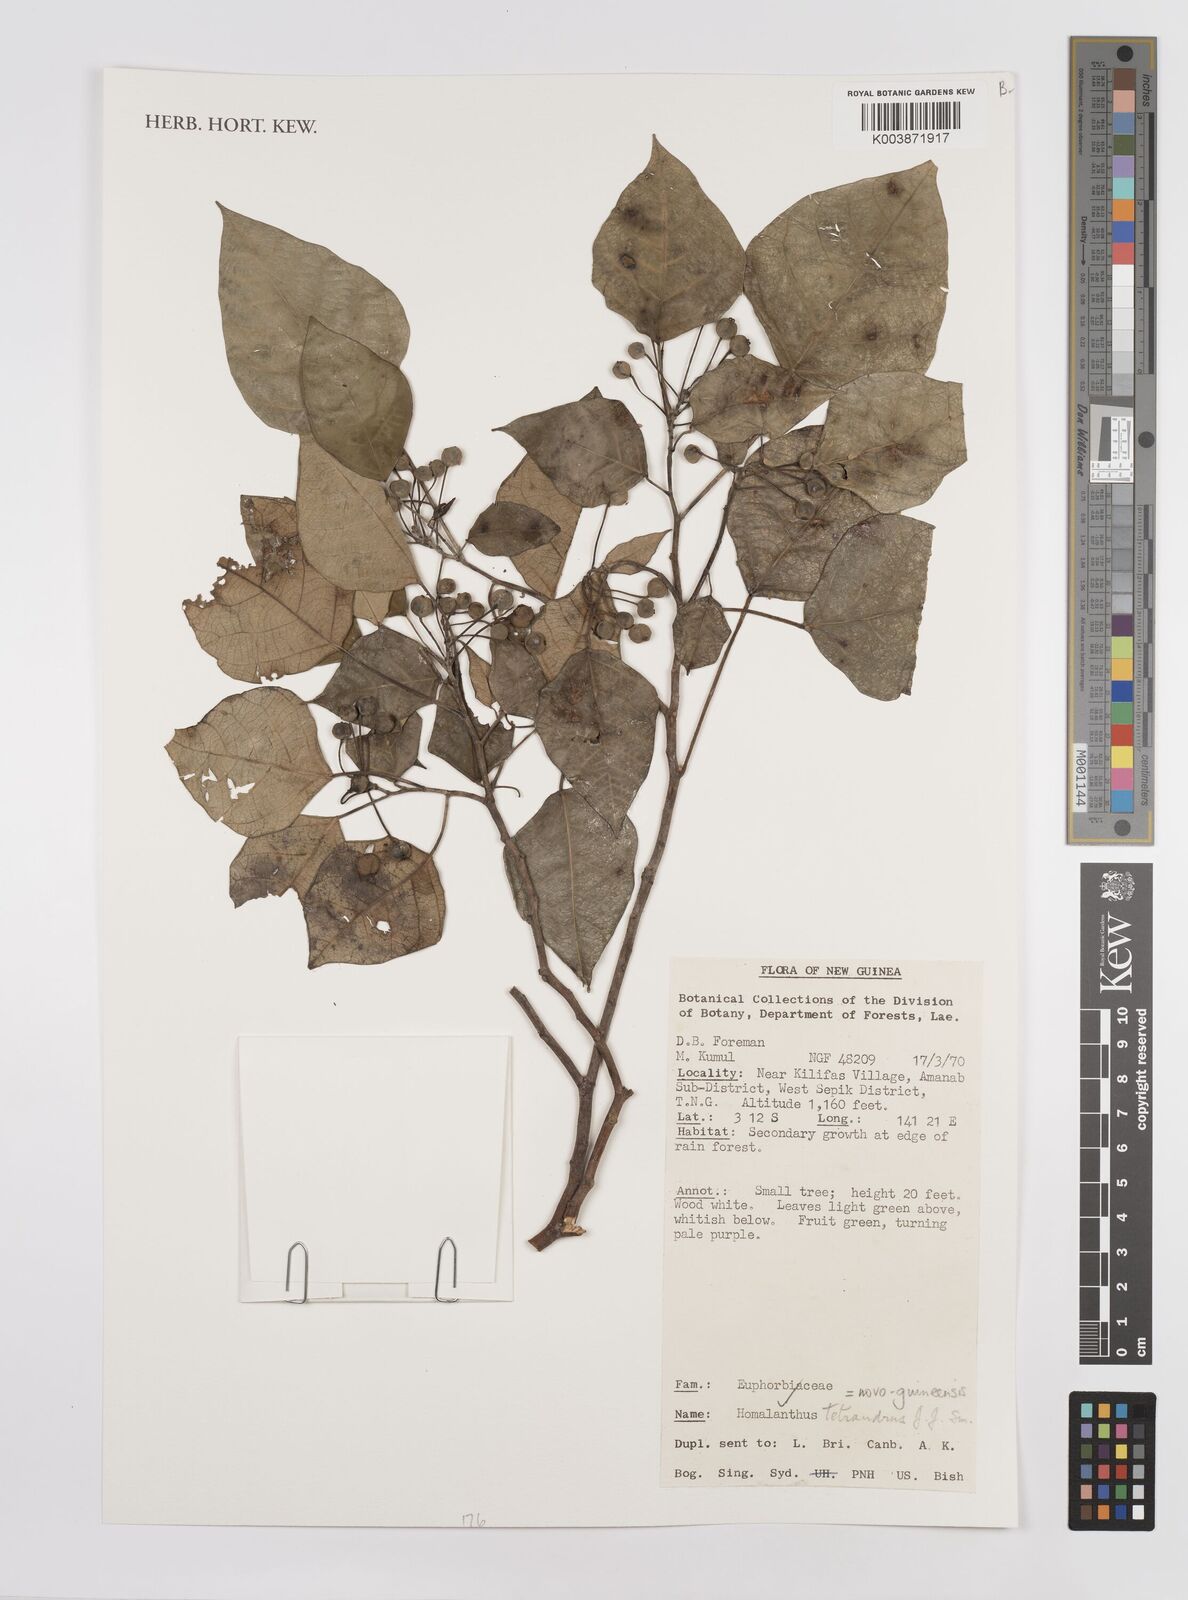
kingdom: Plantae
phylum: Tracheophyta
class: Magnoliopsida
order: Malpighiales
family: Euphorbiaceae
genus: Homalanthus
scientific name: Homalanthus novoguineensis
